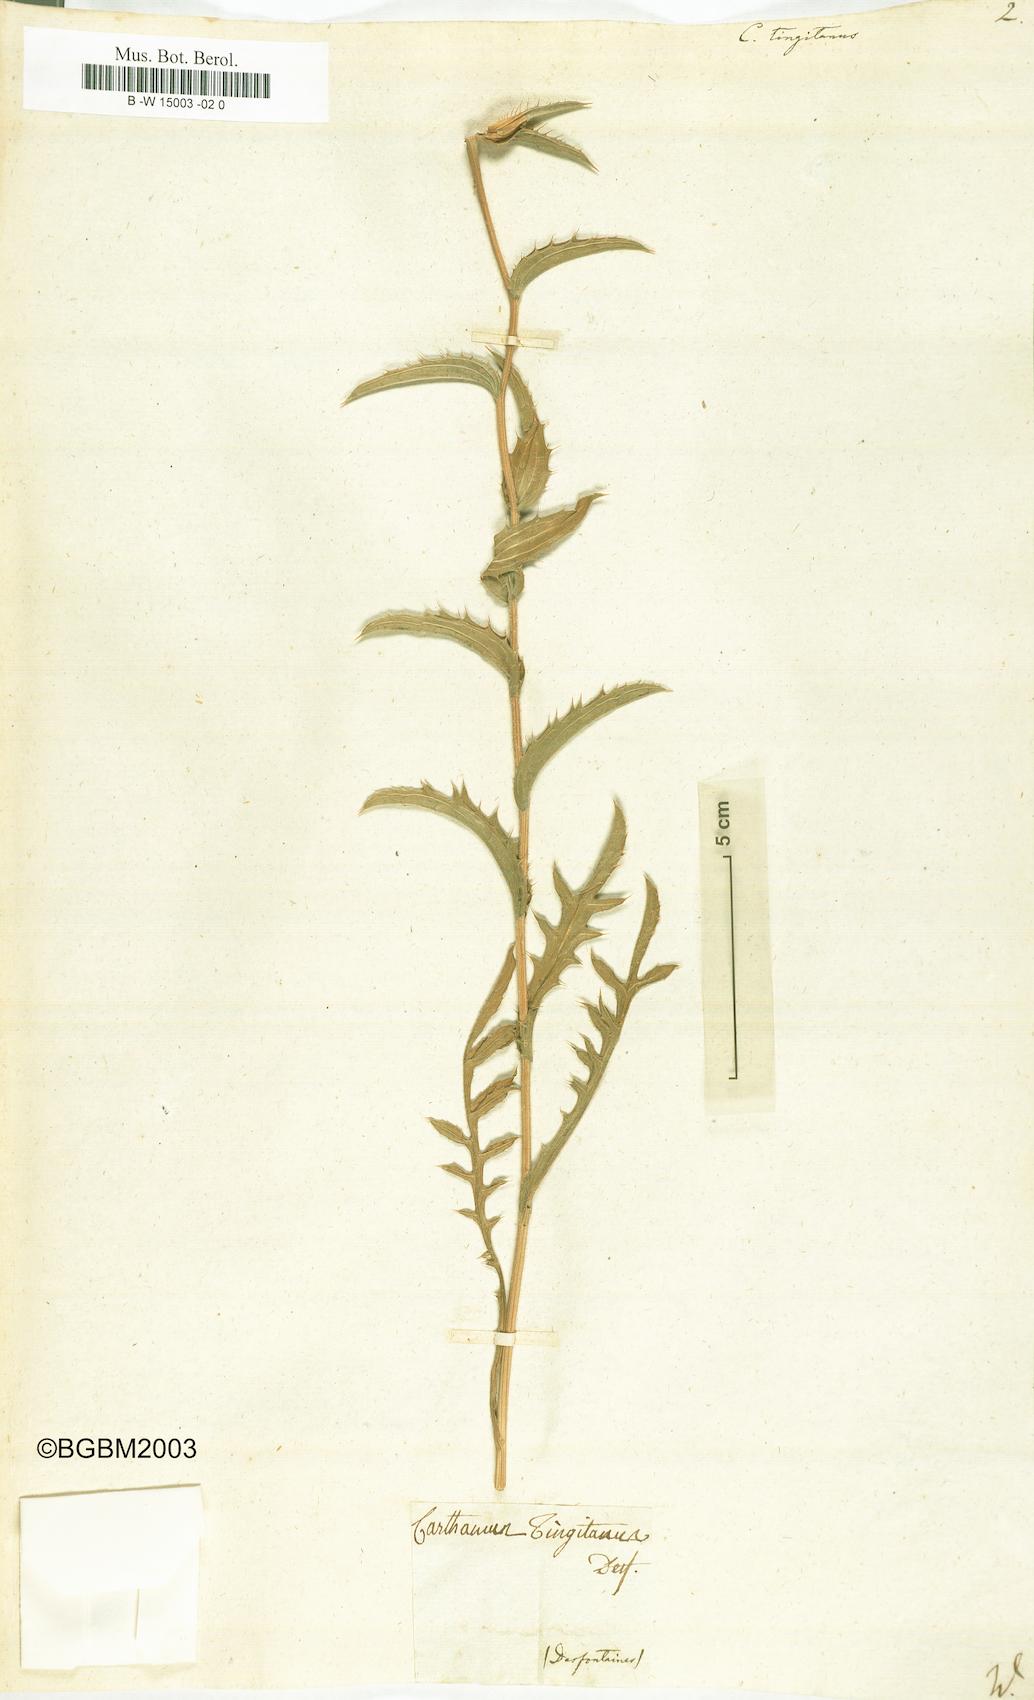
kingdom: Plantae
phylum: Tracheophyta
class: Magnoliopsida
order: Asterales
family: Asteraceae
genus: Carduncellus
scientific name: Carduncellus caeruleus
